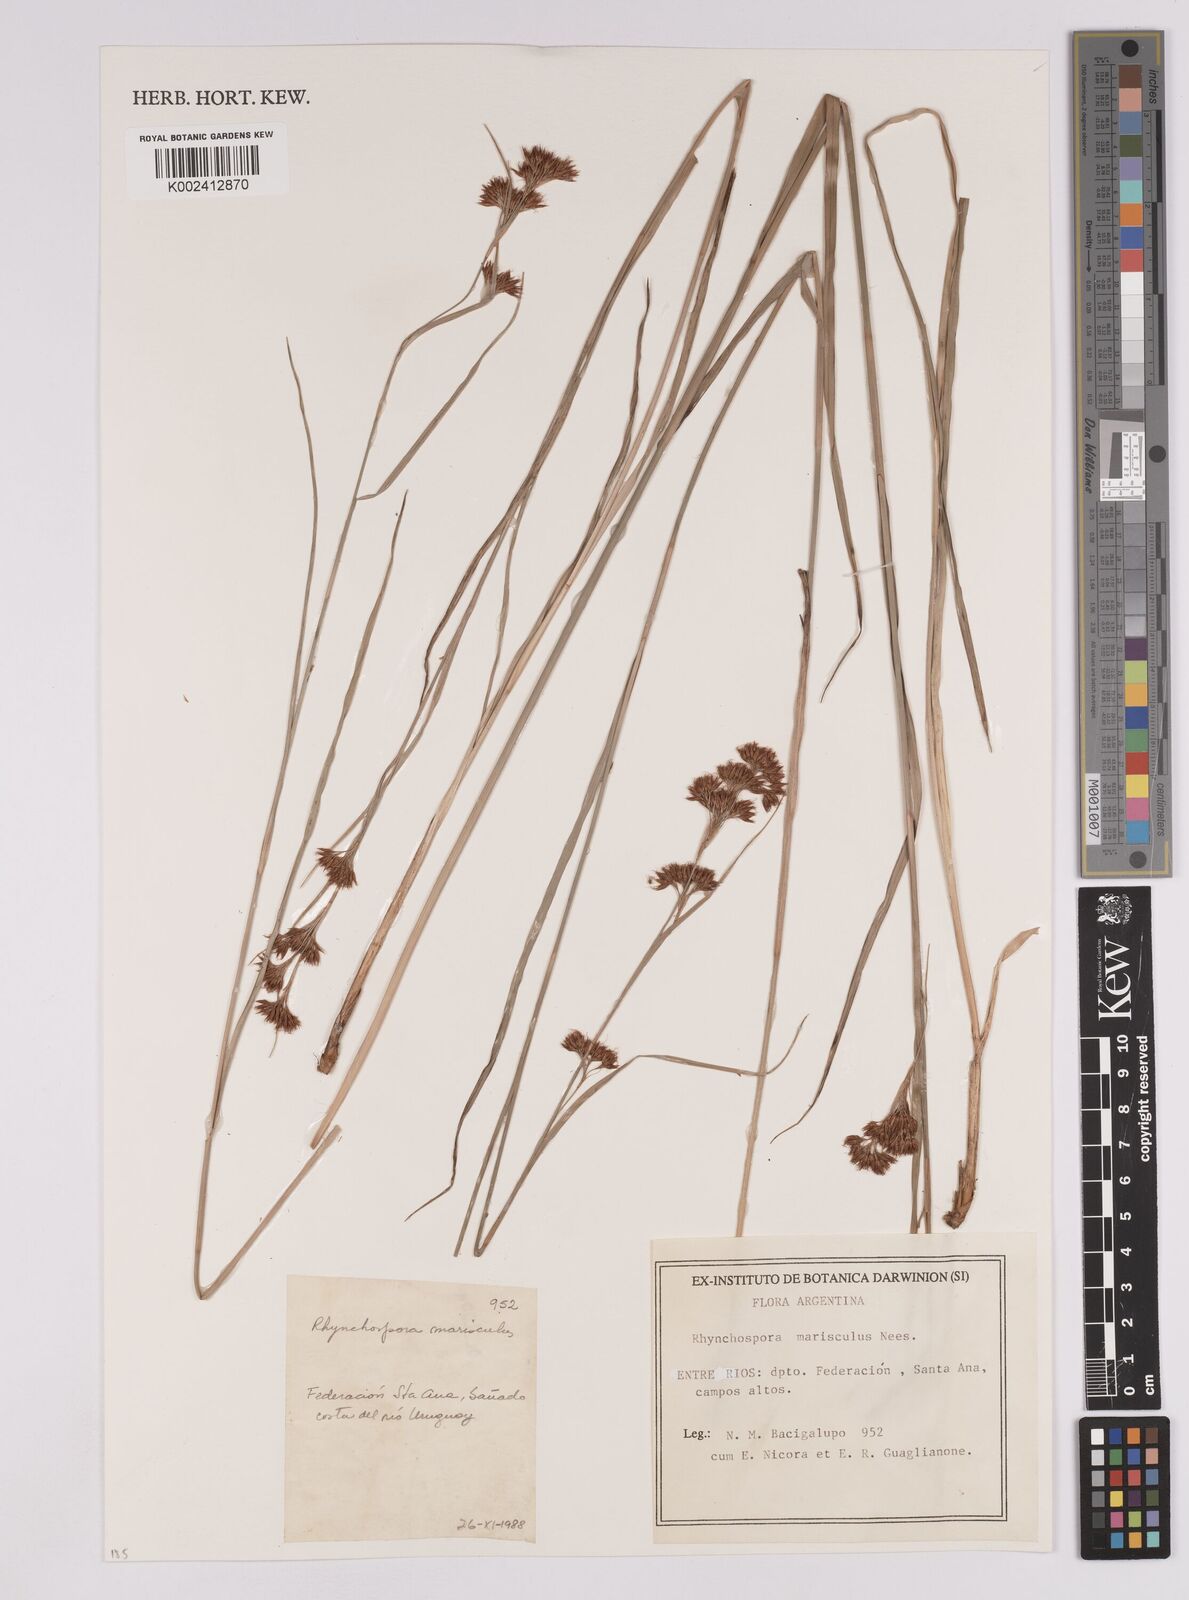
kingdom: Plantae
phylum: Tracheophyta
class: Liliopsida
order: Poales
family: Cyperaceae
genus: Rhynchospora
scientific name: Rhynchospora marisculus
